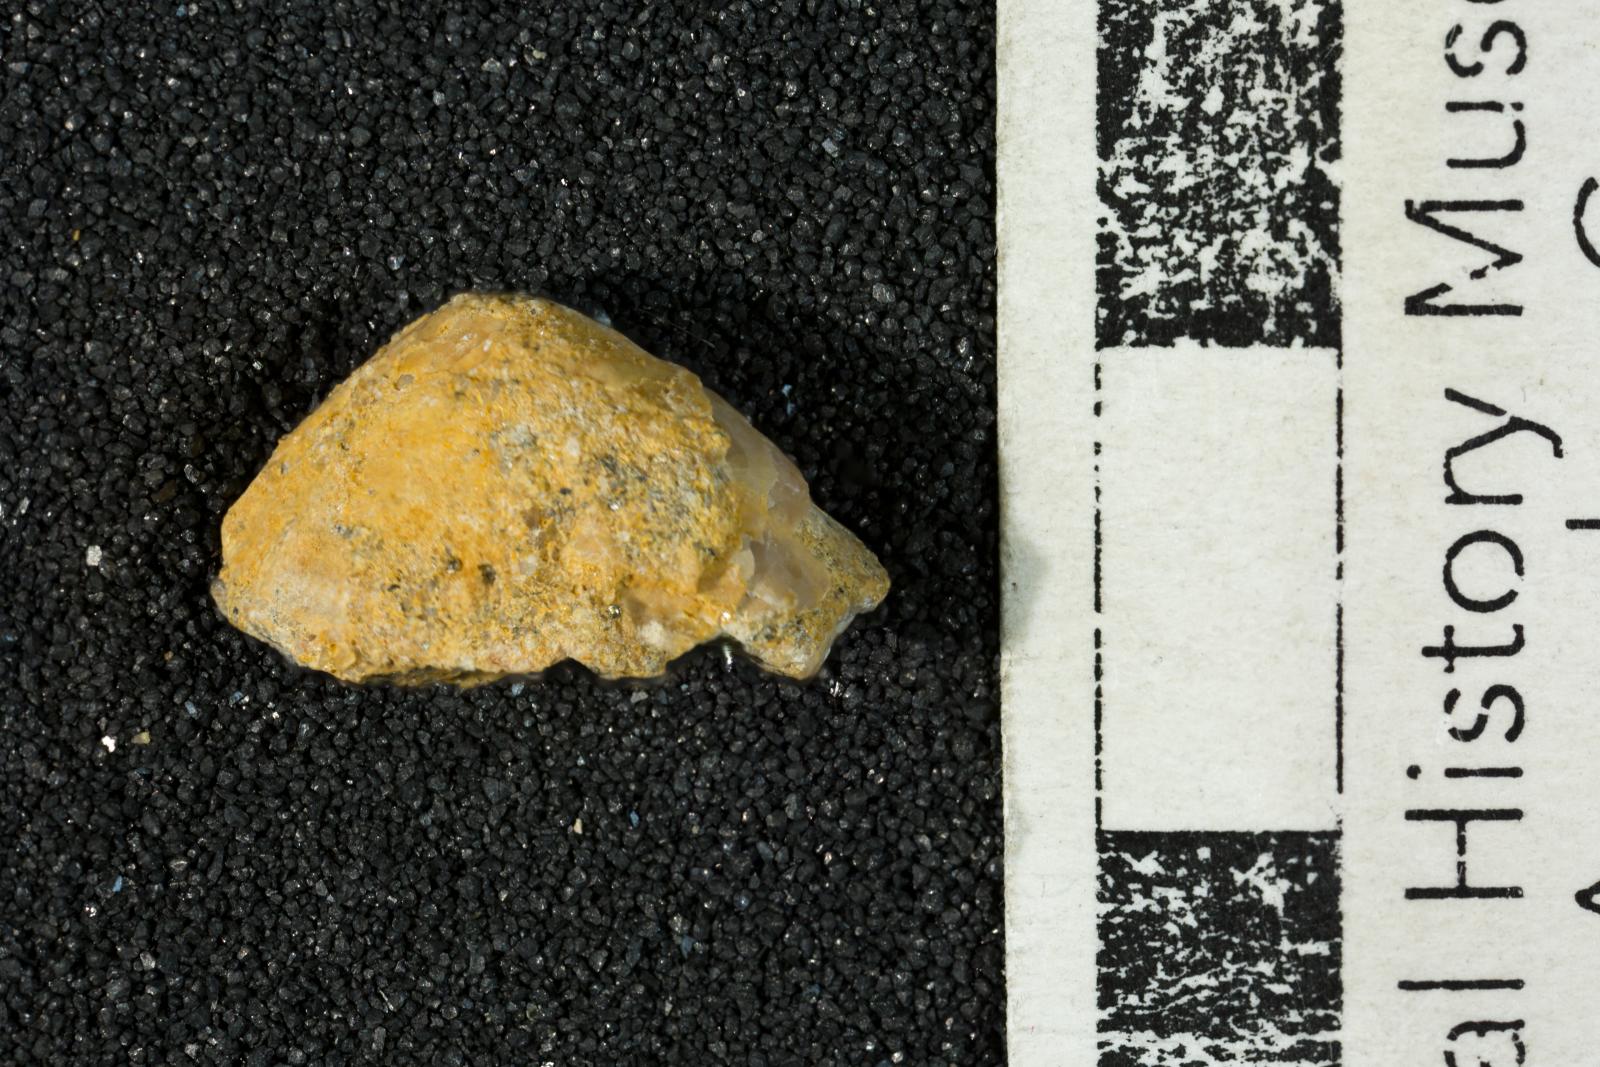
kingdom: Animalia
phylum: Mollusca
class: Gastropoda
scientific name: Gastropoda
